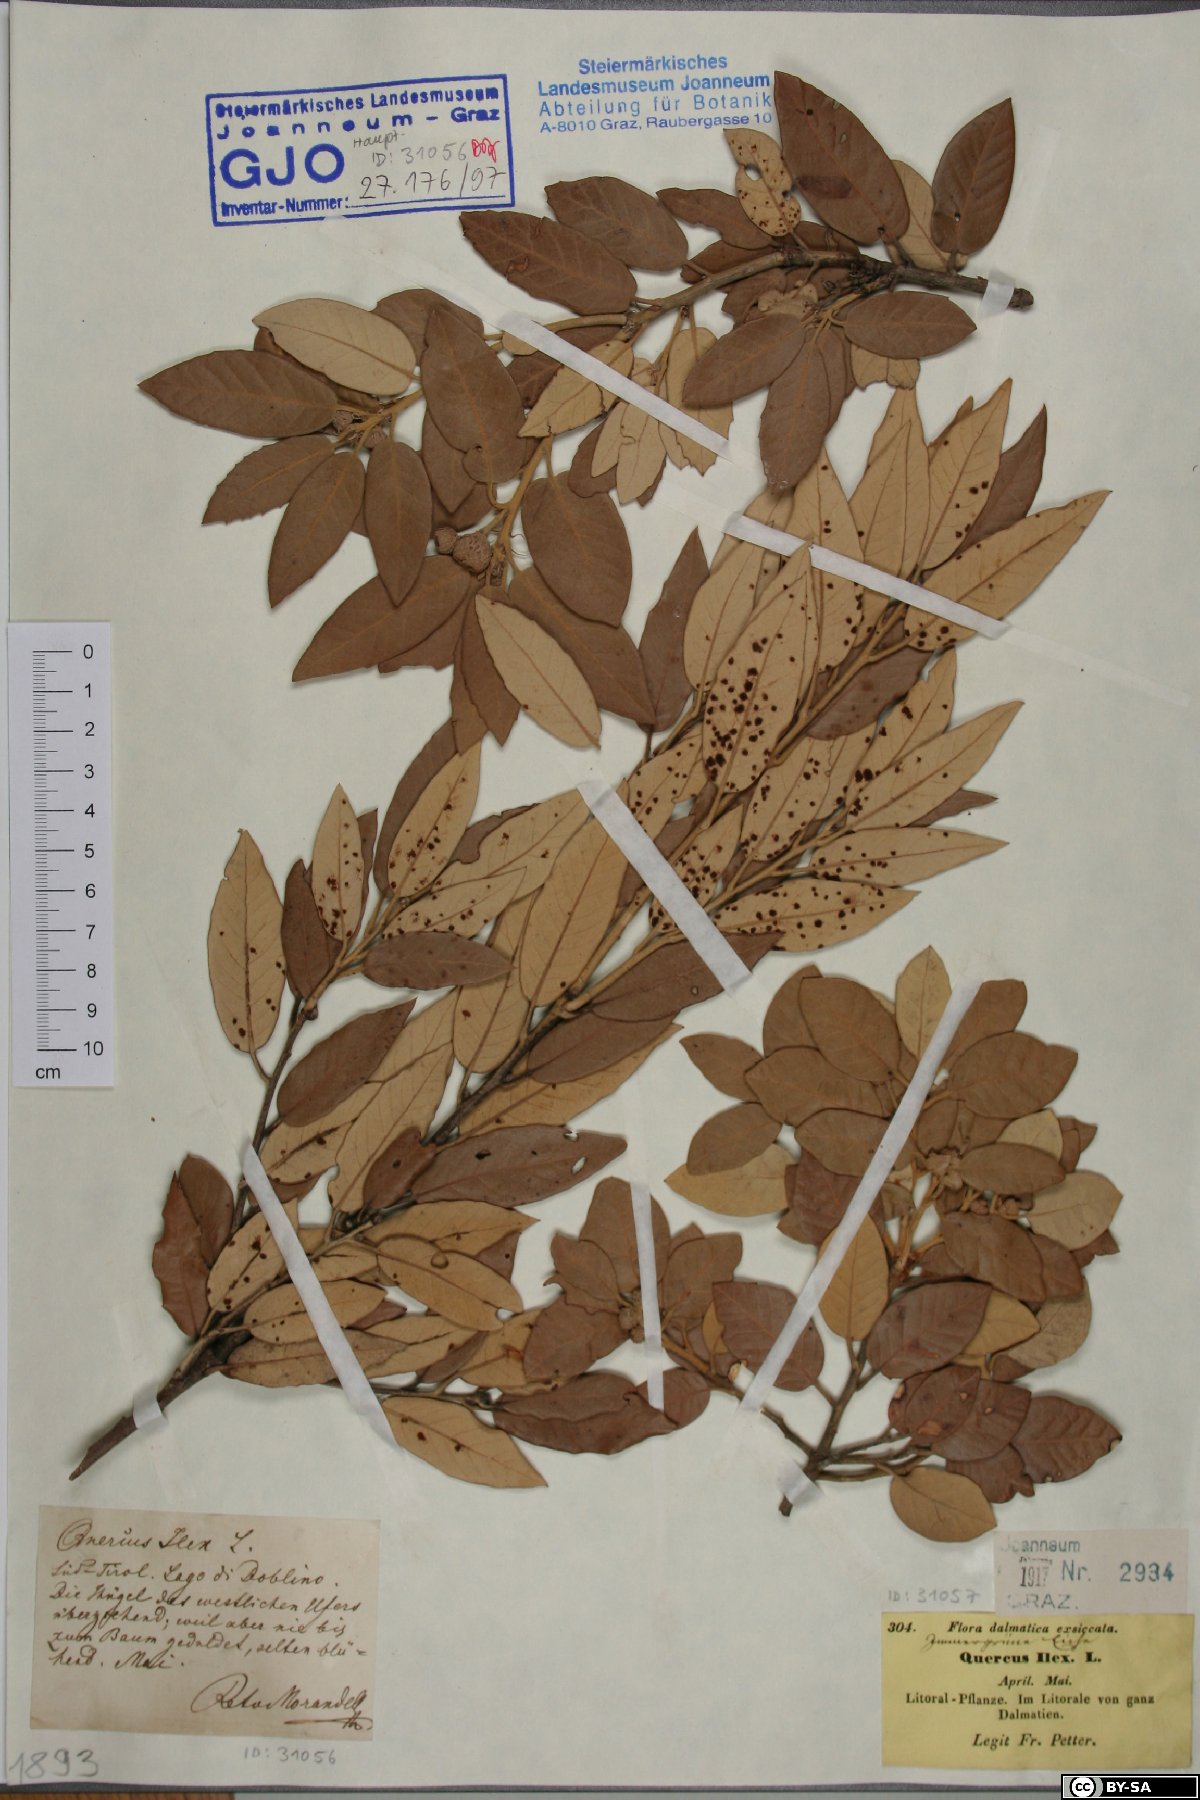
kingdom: Plantae
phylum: Tracheophyta
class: Magnoliopsida
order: Fagales
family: Fagaceae
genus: Quercus
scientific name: Quercus ilex
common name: Evergreen oak
